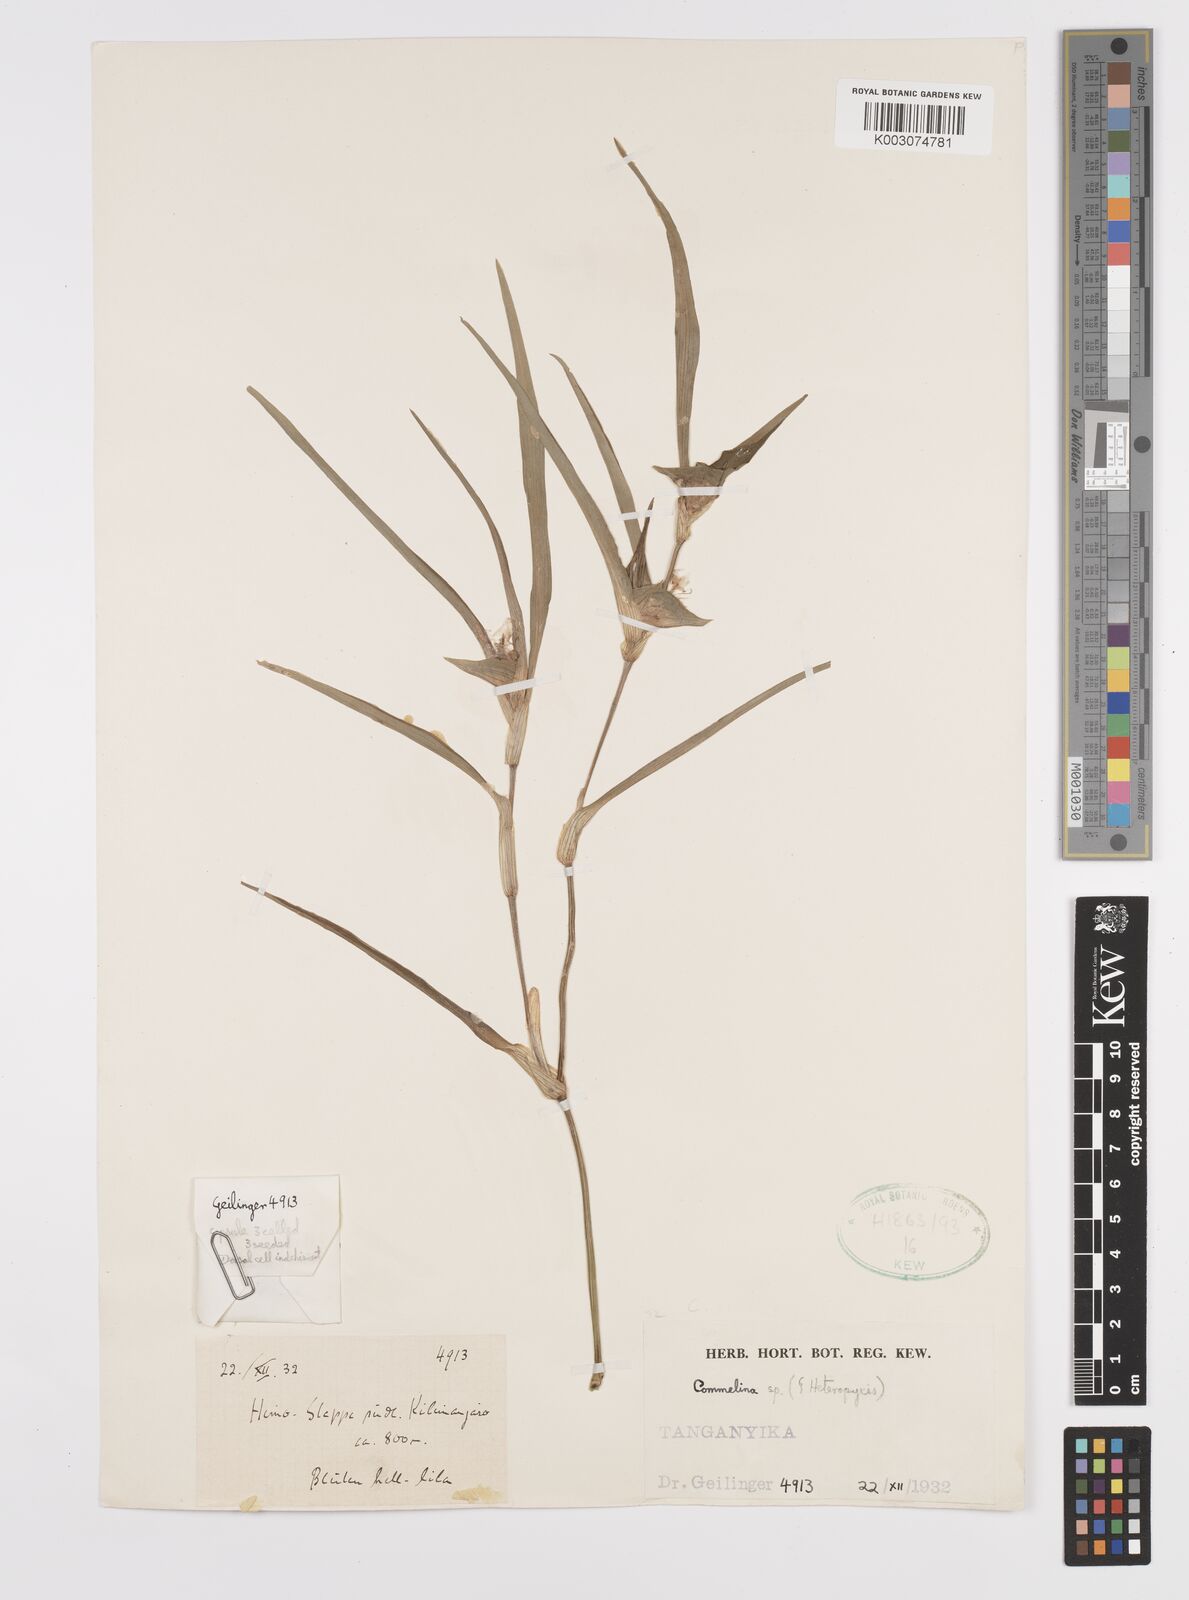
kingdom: Plantae
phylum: Tracheophyta
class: Liliopsida
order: Commelinales
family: Commelinaceae
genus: Commelina
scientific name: Commelina albescens
